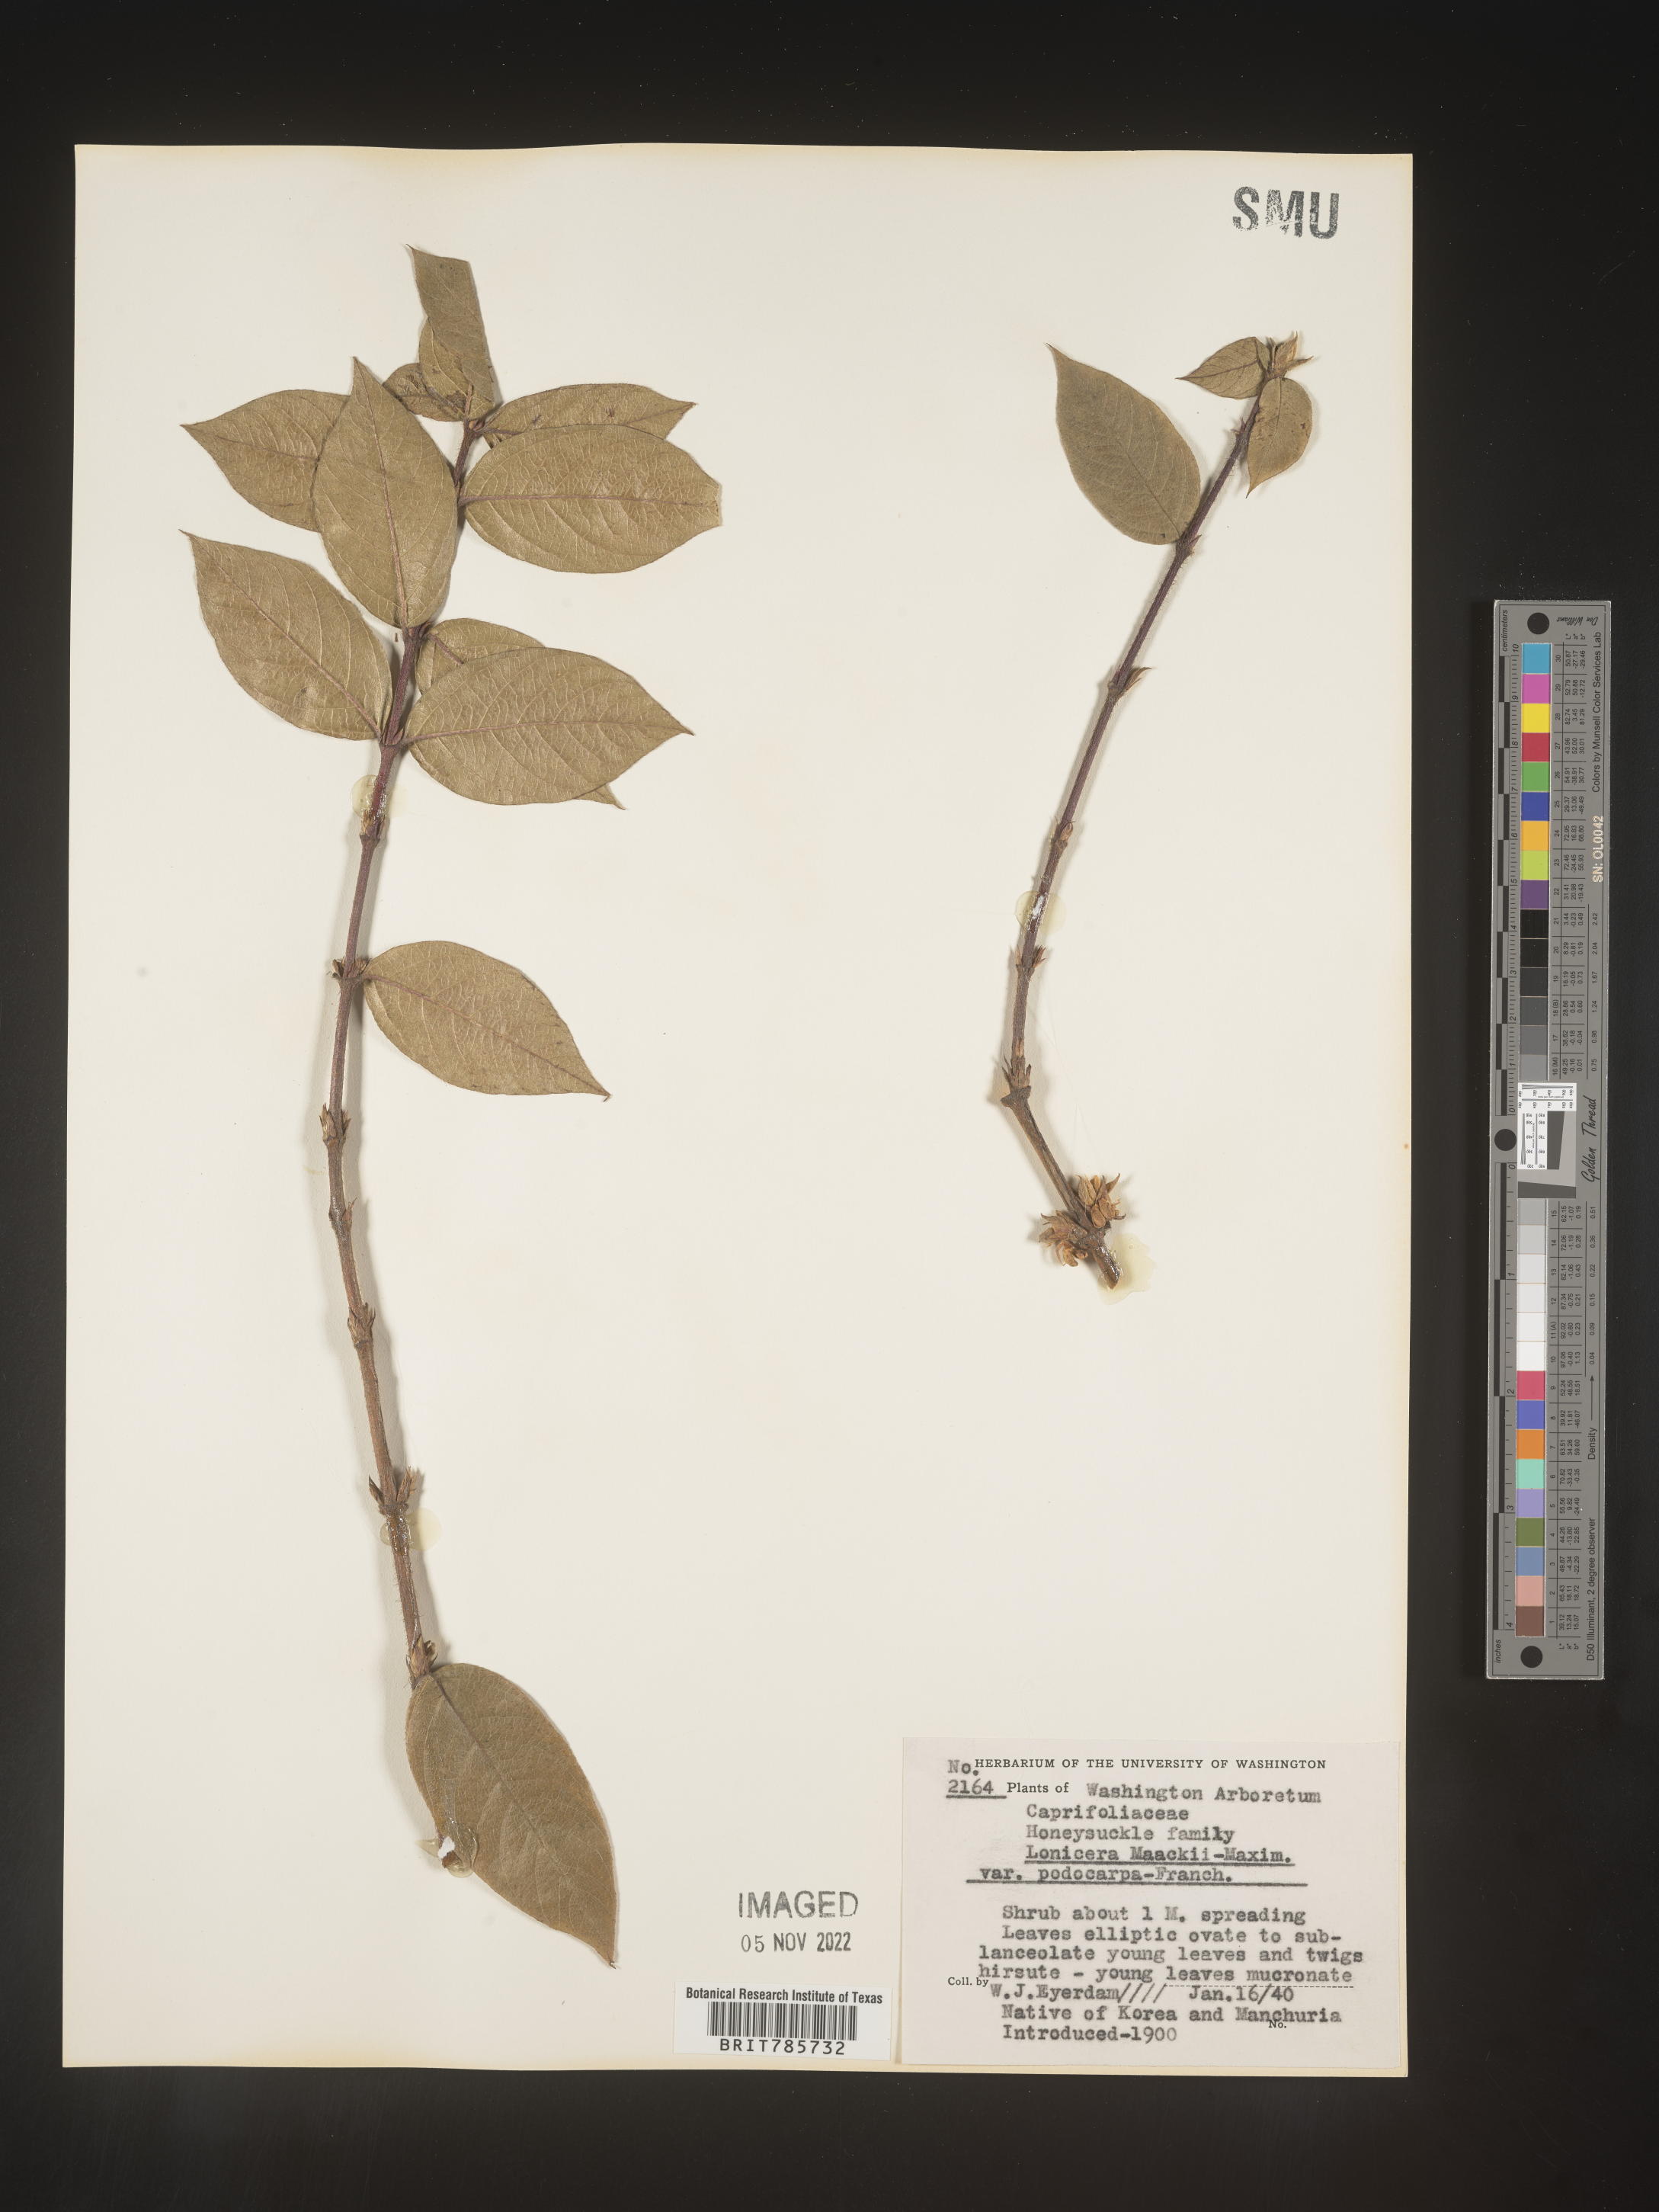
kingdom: Plantae
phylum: Tracheophyta
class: Magnoliopsida
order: Dipsacales
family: Caprifoliaceae
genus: Lonicera
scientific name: Lonicera
